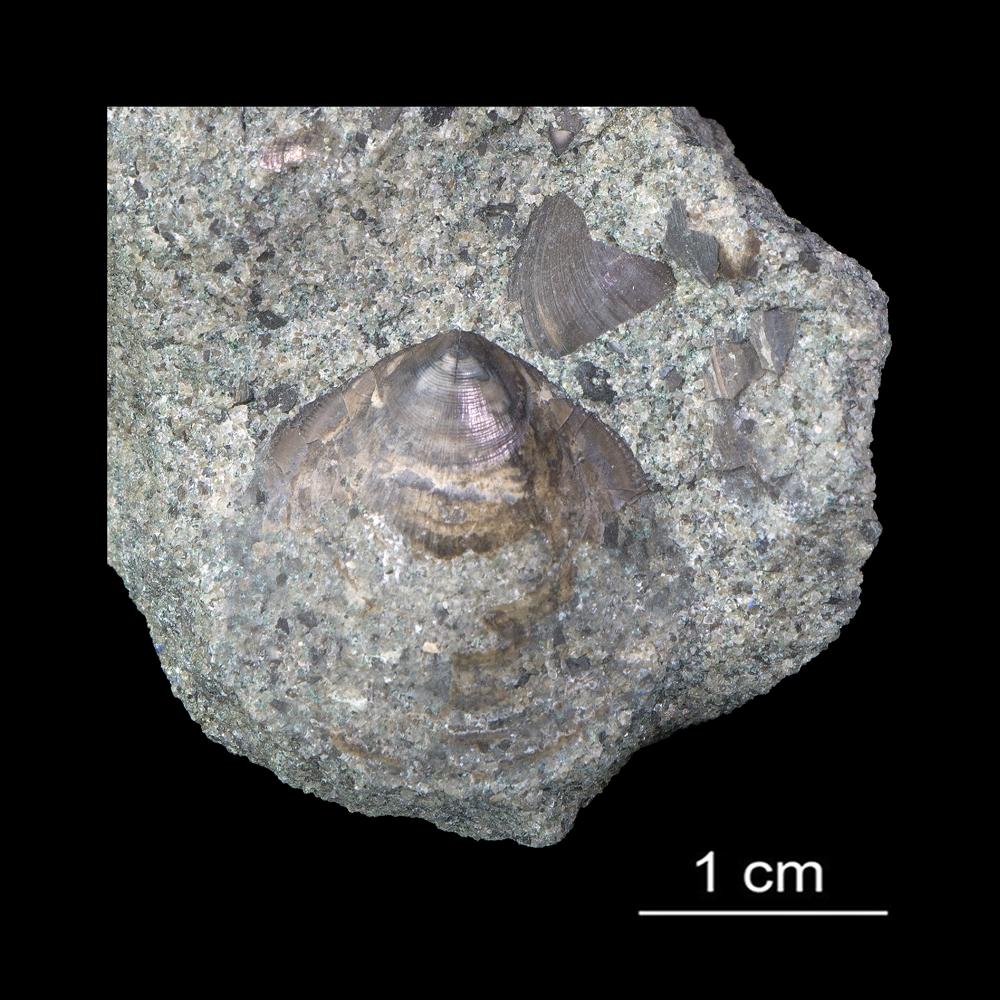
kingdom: Animalia
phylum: Brachiopoda
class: Lingulata
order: Lingulida
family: Zhanatellidae
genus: Thysanotos
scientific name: Thysanotos
